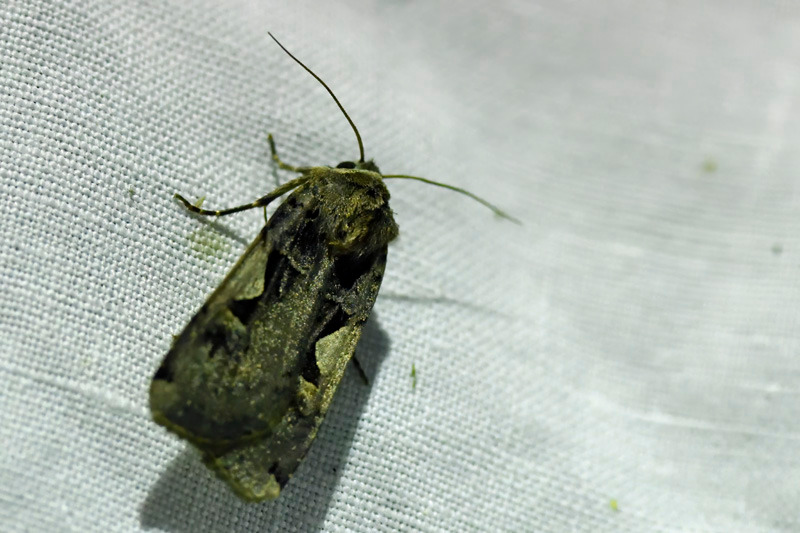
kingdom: Animalia
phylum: Arthropoda
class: Insecta
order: Lepidoptera
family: Noctuidae
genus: Xestia
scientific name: Xestia c-nigrum
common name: Det sorte c
